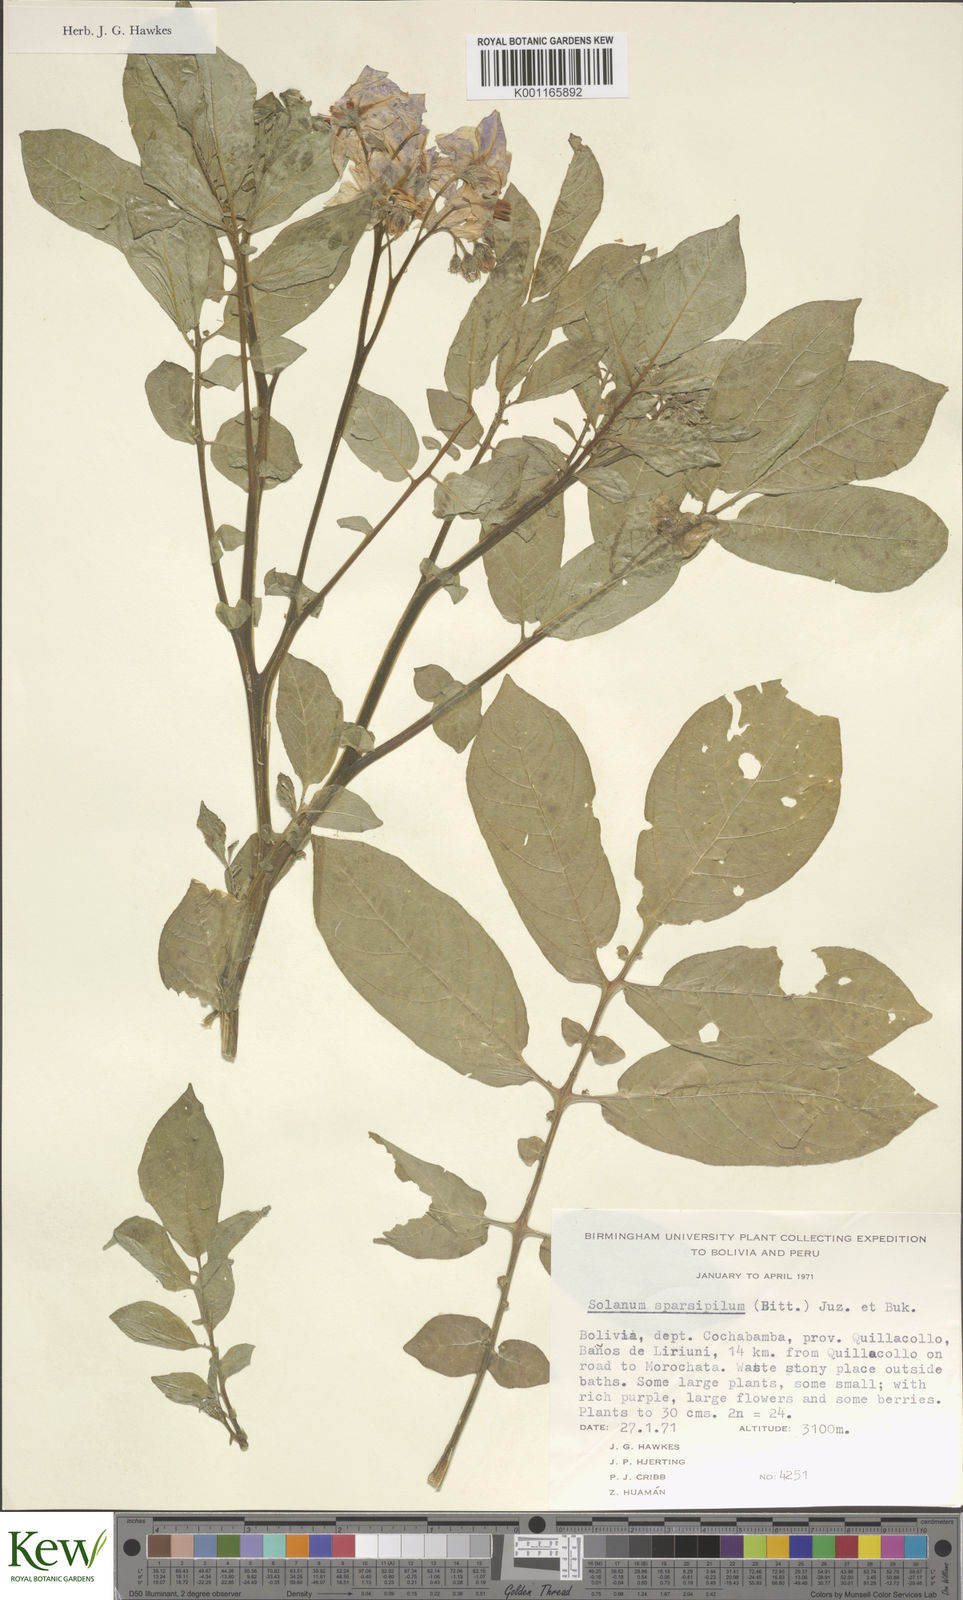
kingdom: Plantae
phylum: Tracheophyta
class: Magnoliopsida
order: Solanales
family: Solanaceae
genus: Solanum
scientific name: Solanum brevicaule
